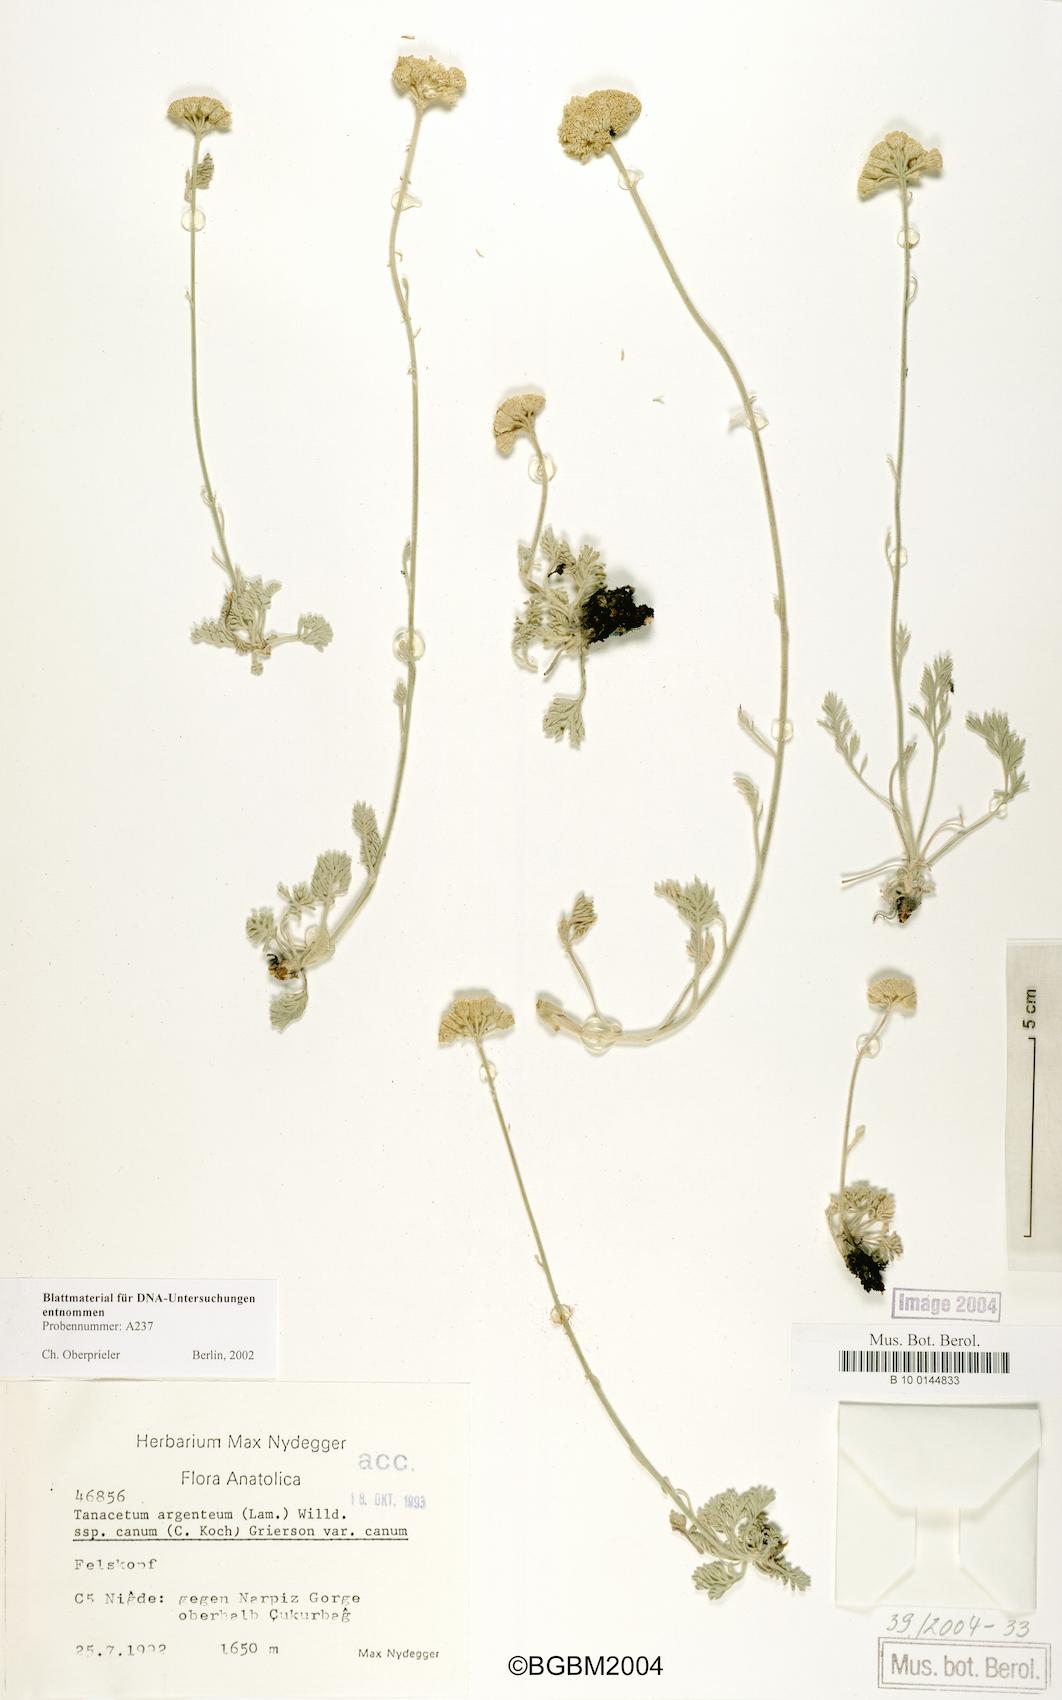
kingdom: Plantae
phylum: Tracheophyta
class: Magnoliopsida
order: Asterales
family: Asteraceae
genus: Tanacetum
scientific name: Tanacetum argenteum
